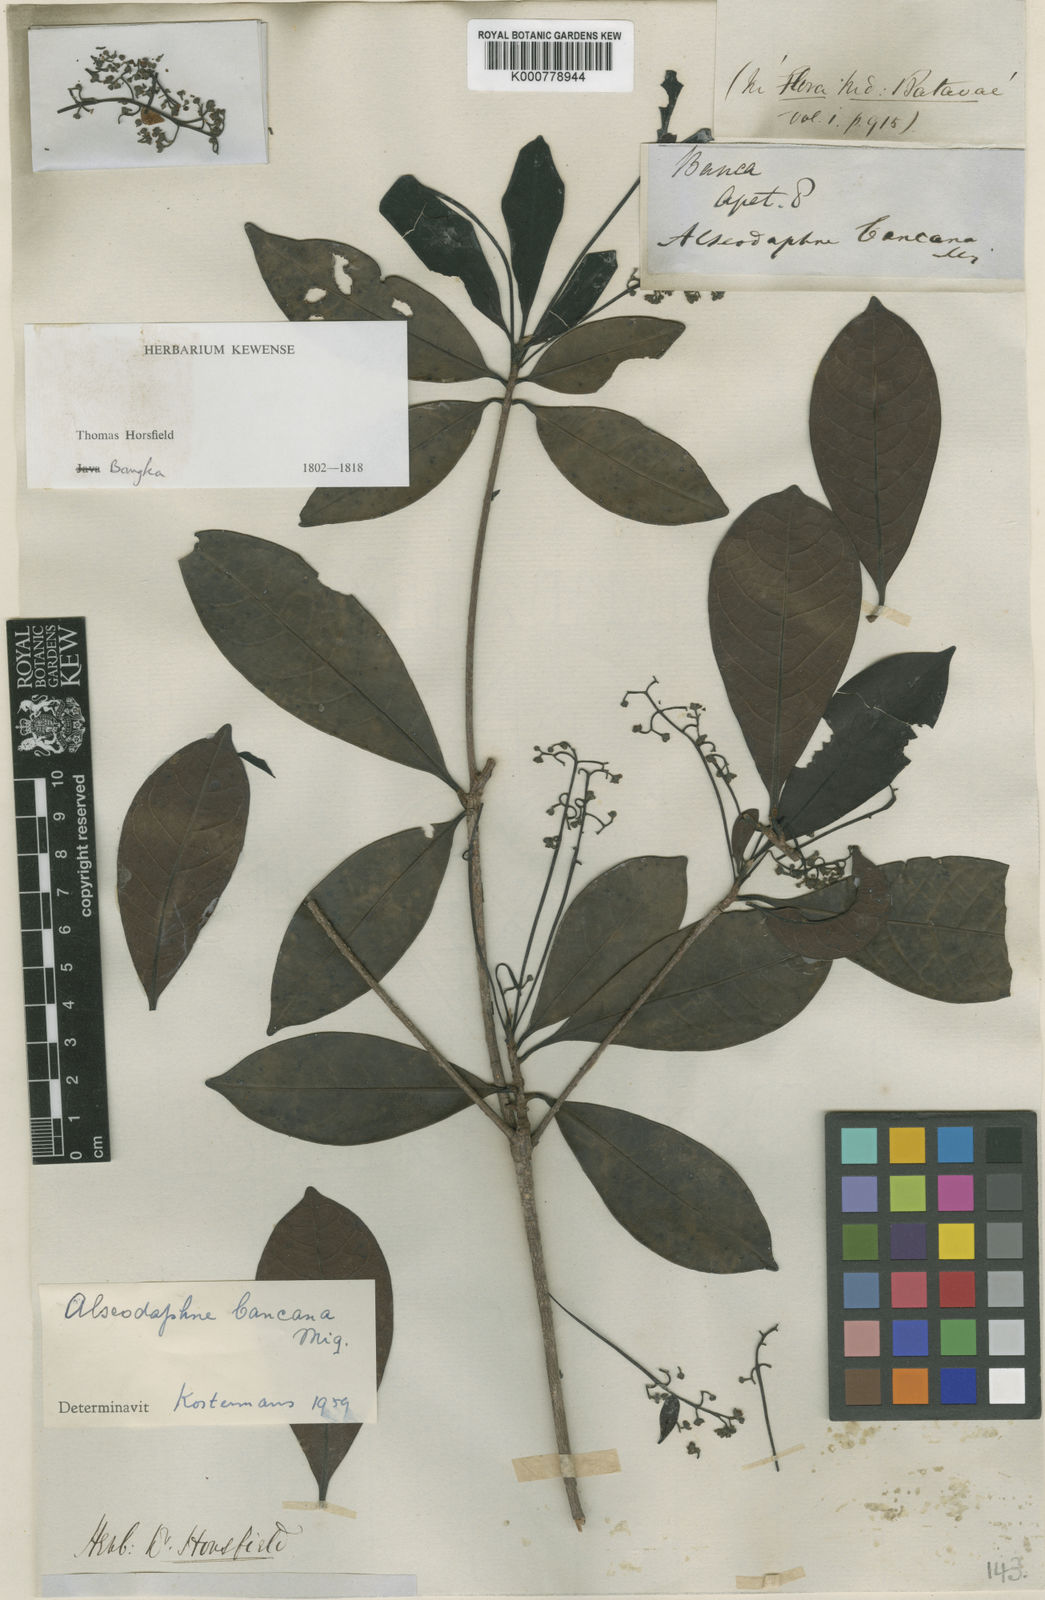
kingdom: Plantae
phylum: Tracheophyta
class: Magnoliopsida
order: Laurales
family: Lauraceae
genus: Alseodaphne
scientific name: Alseodaphne bancana
